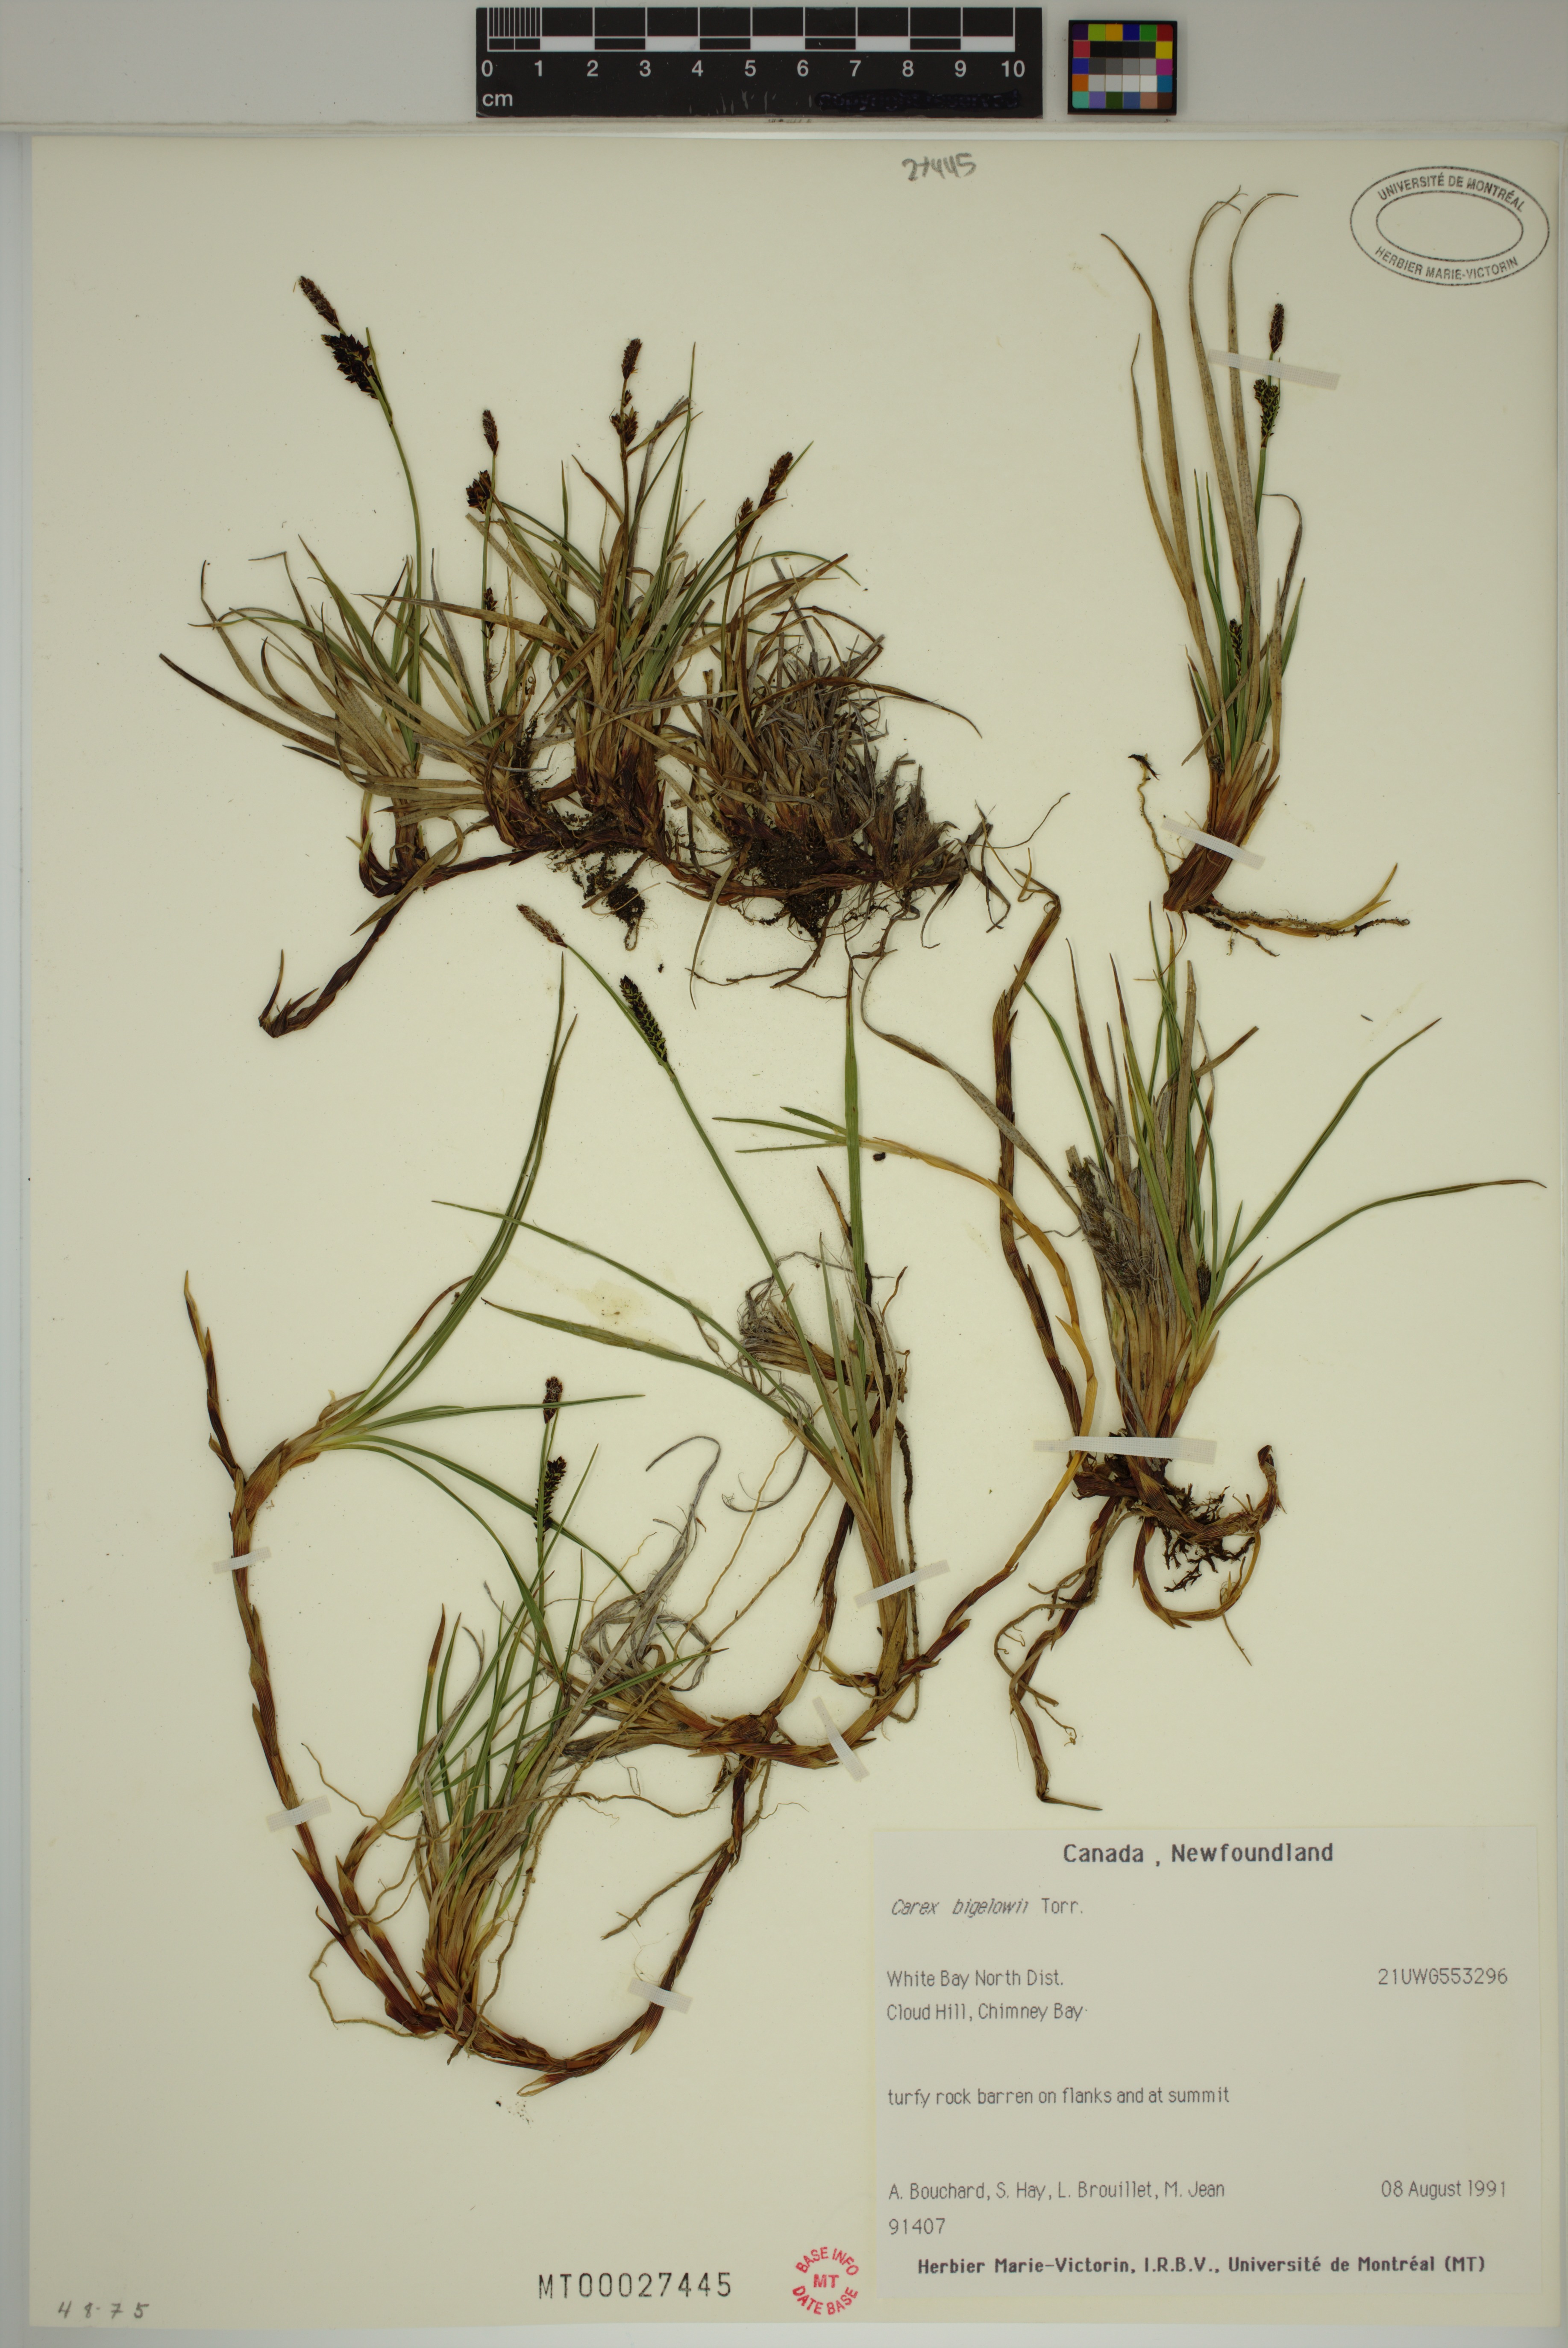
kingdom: Plantae
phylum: Tracheophyta
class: Liliopsida
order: Poales
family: Cyperaceae
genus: Carex
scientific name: Carex bigelowii
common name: Stiff sedge
